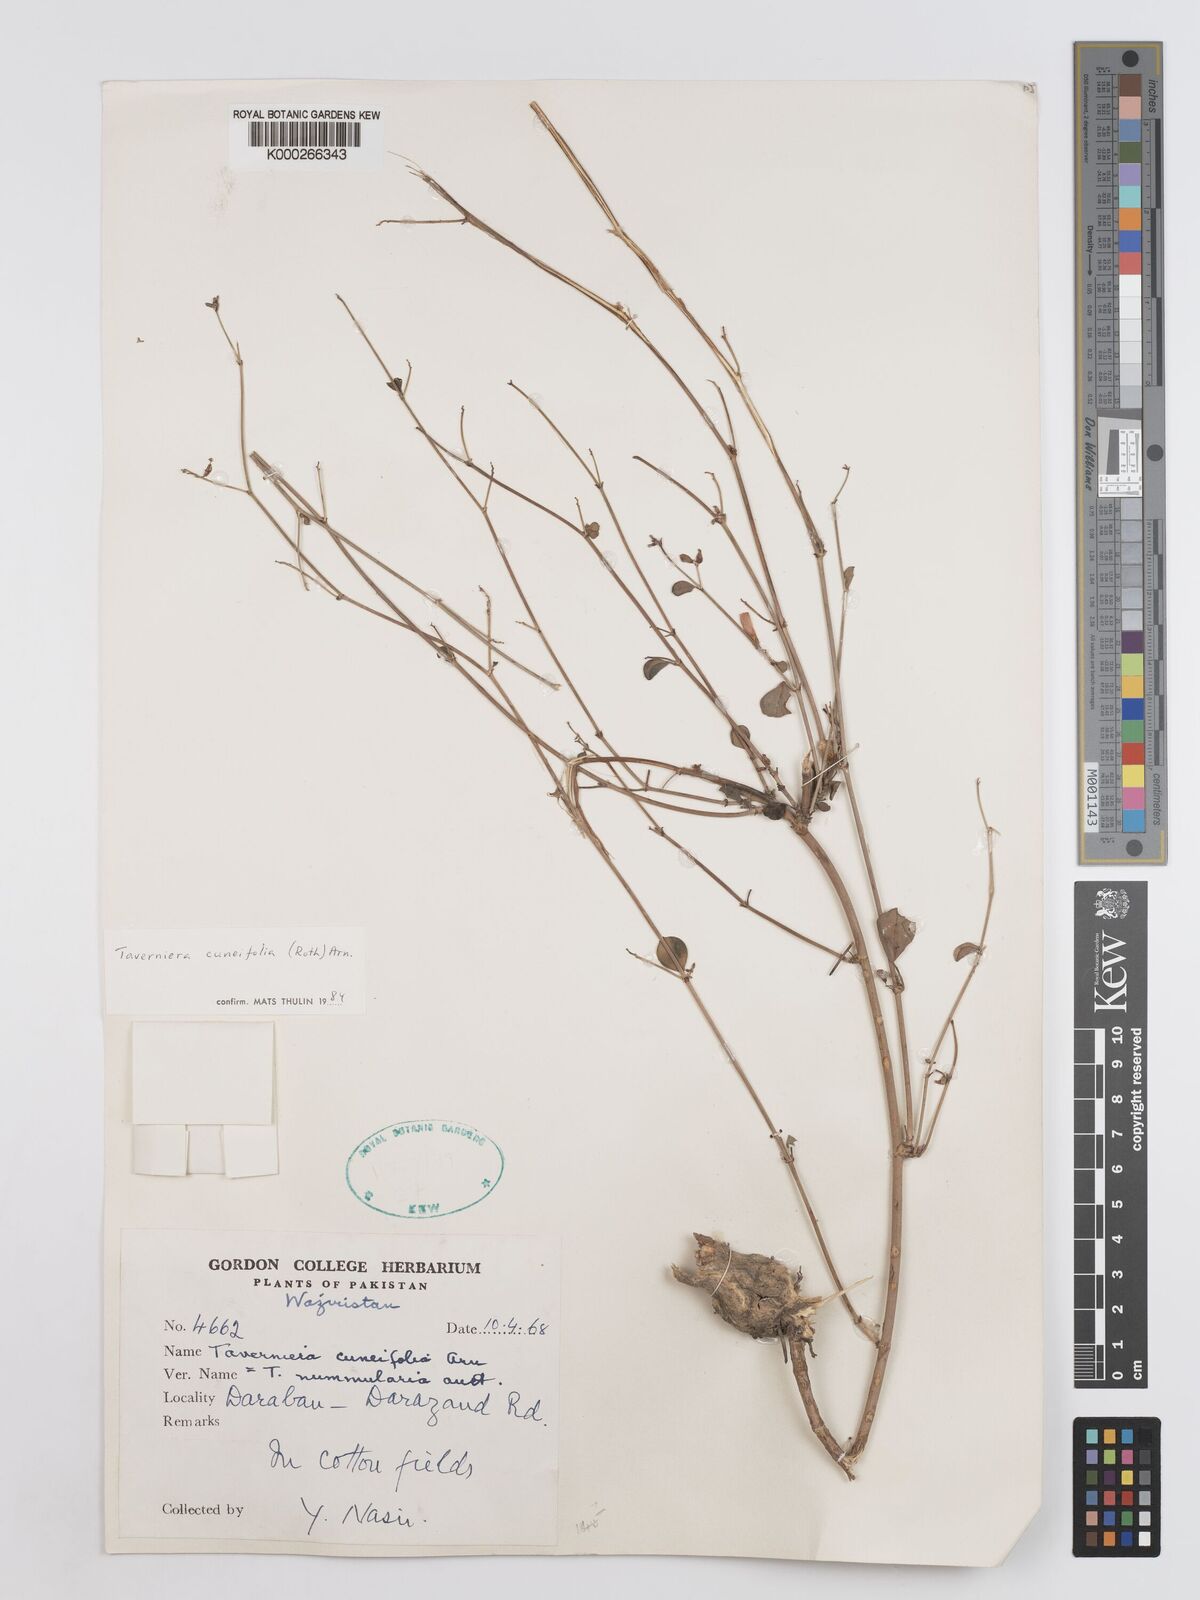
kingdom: Plantae
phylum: Tracheophyta
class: Magnoliopsida
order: Fabales
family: Fabaceae
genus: Taverniera
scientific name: Taverniera cuneifolia
